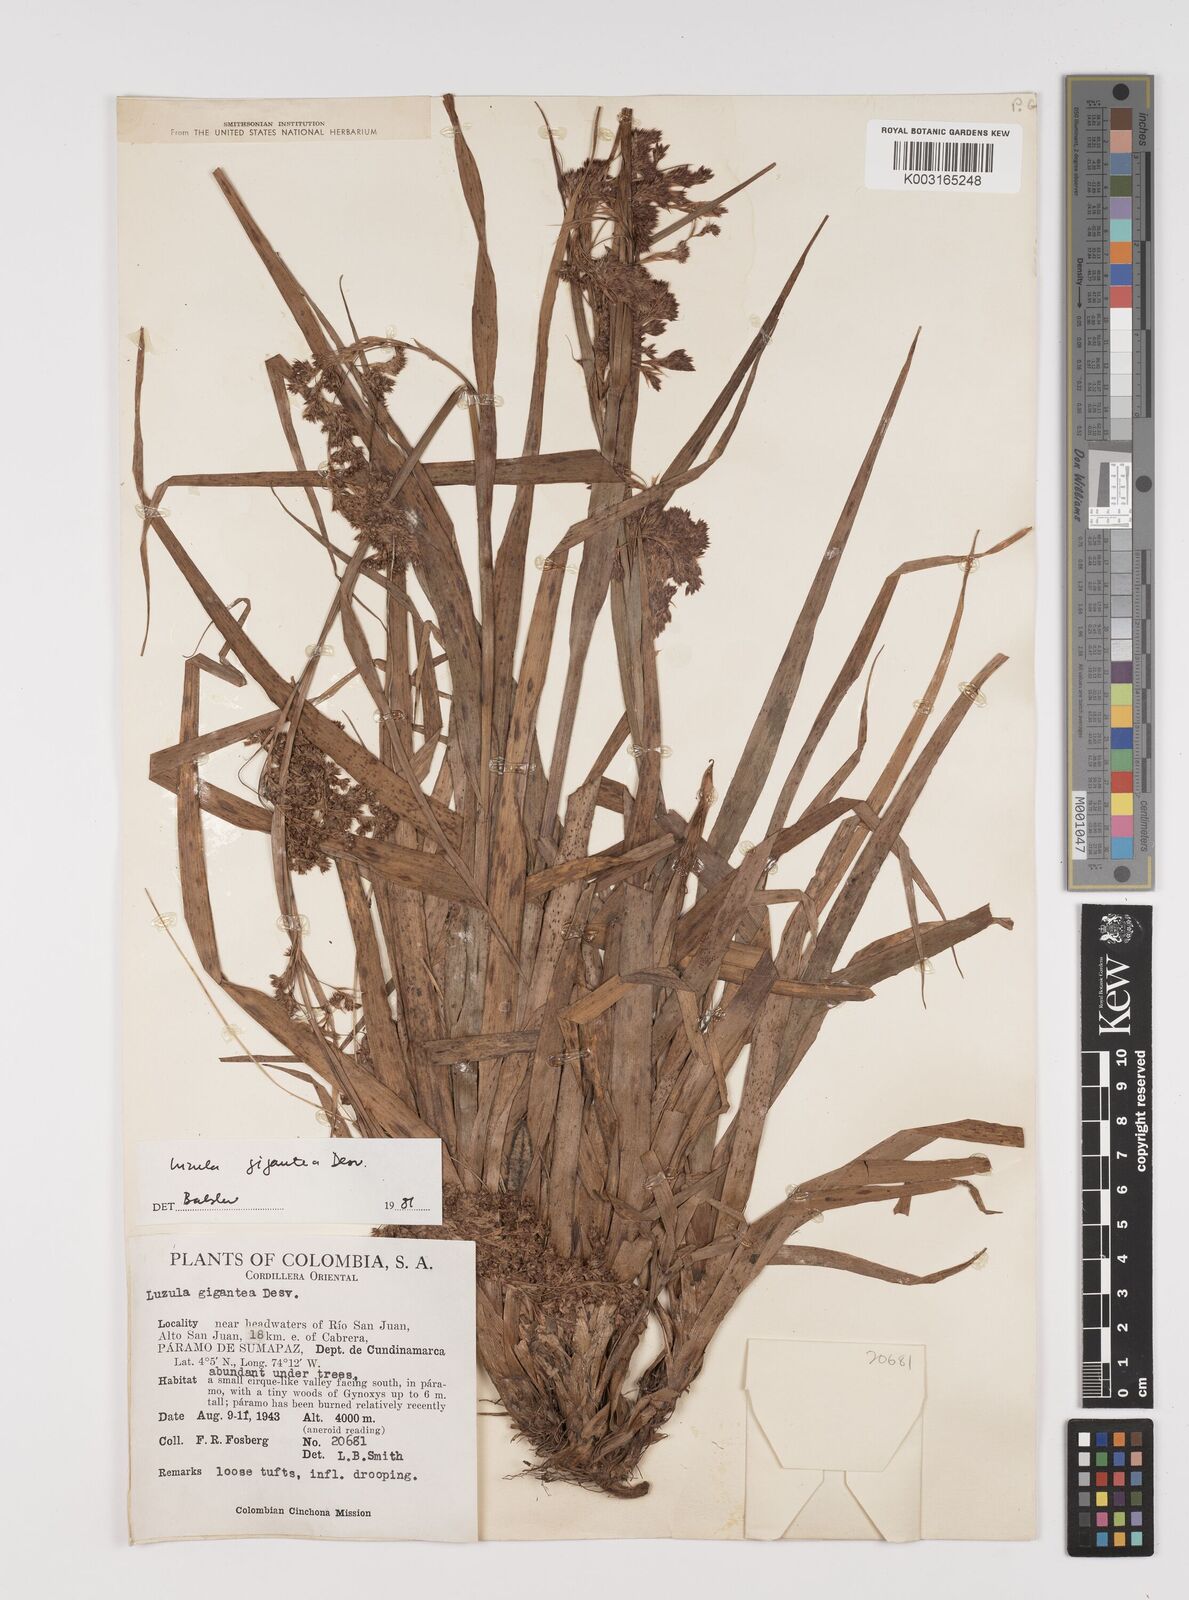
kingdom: Plantae
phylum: Tracheophyta
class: Liliopsida
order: Poales
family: Juncaceae
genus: Luzula
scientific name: Luzula gigantea
